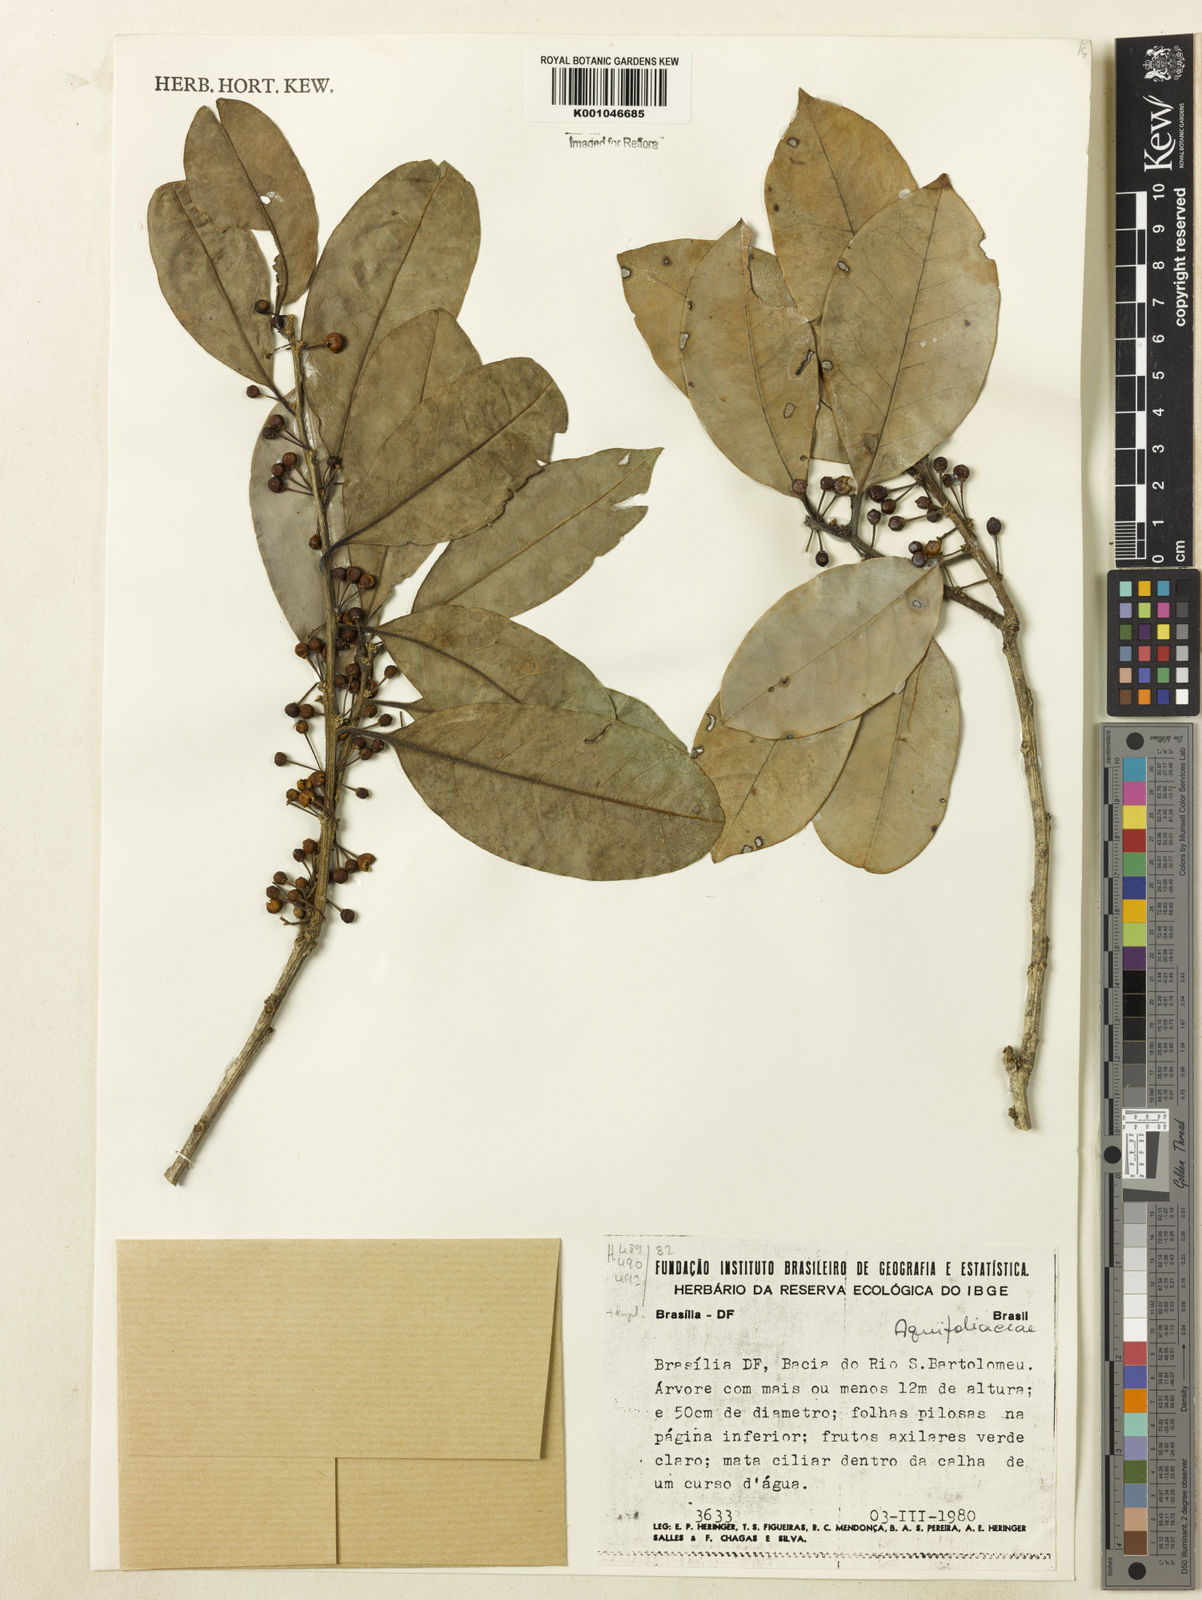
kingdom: Plantae
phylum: Tracheophyta
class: Magnoliopsida
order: Aquifoliales
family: Aquifoliaceae
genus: Ilex
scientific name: Ilex lundii
